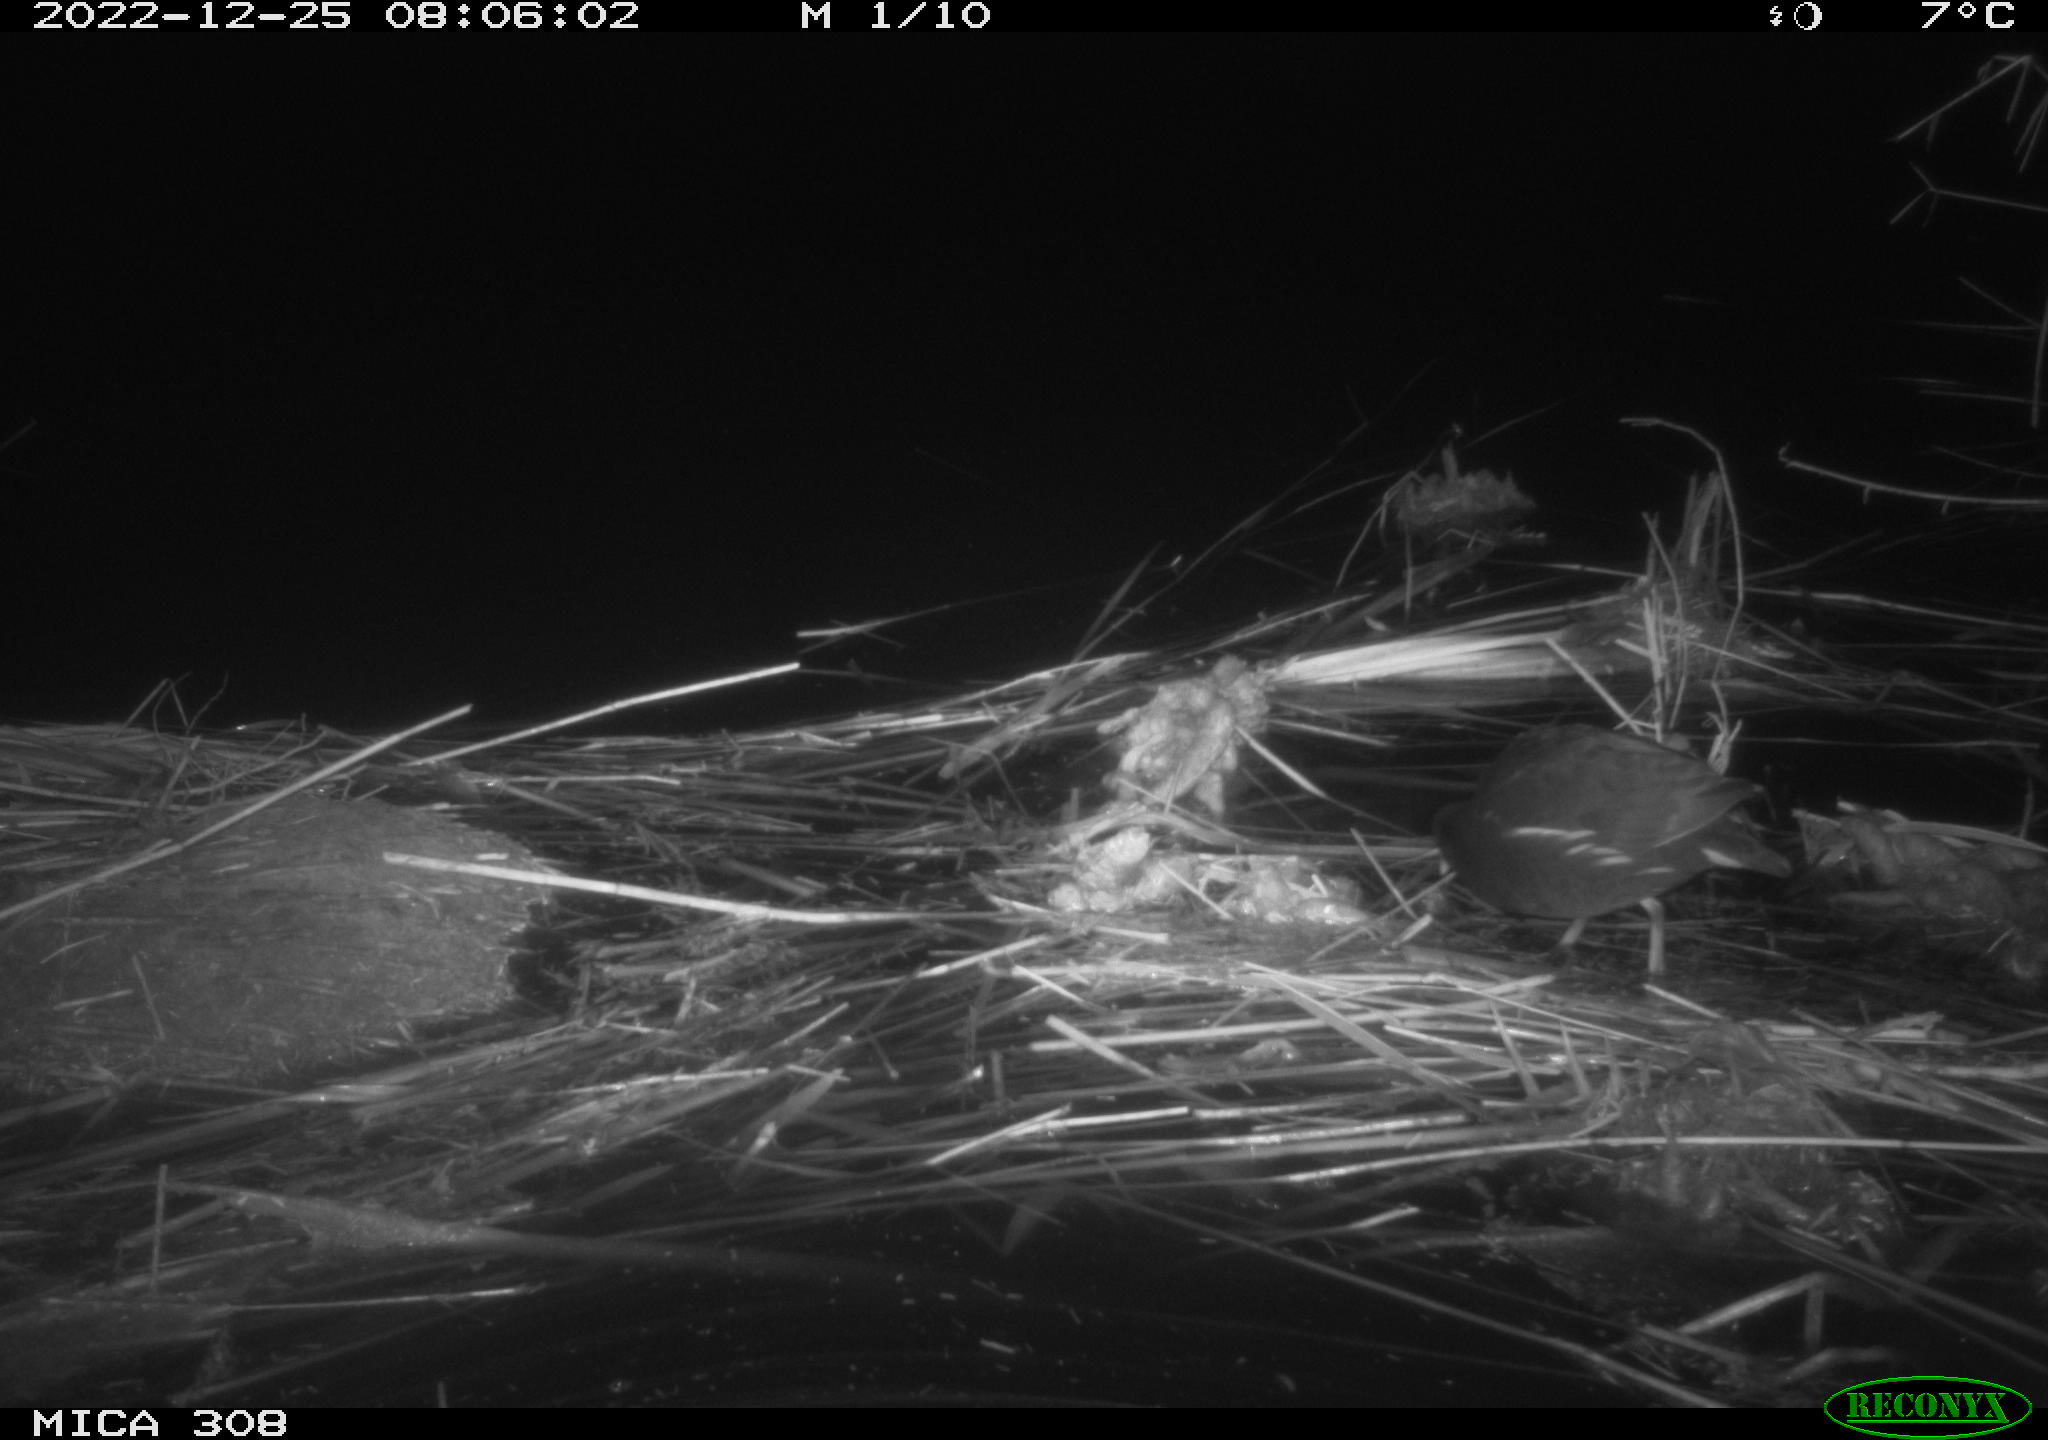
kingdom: Animalia
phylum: Chordata
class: Aves
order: Gruiformes
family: Rallidae
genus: Gallinula
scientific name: Gallinula chloropus
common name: Common moorhen
